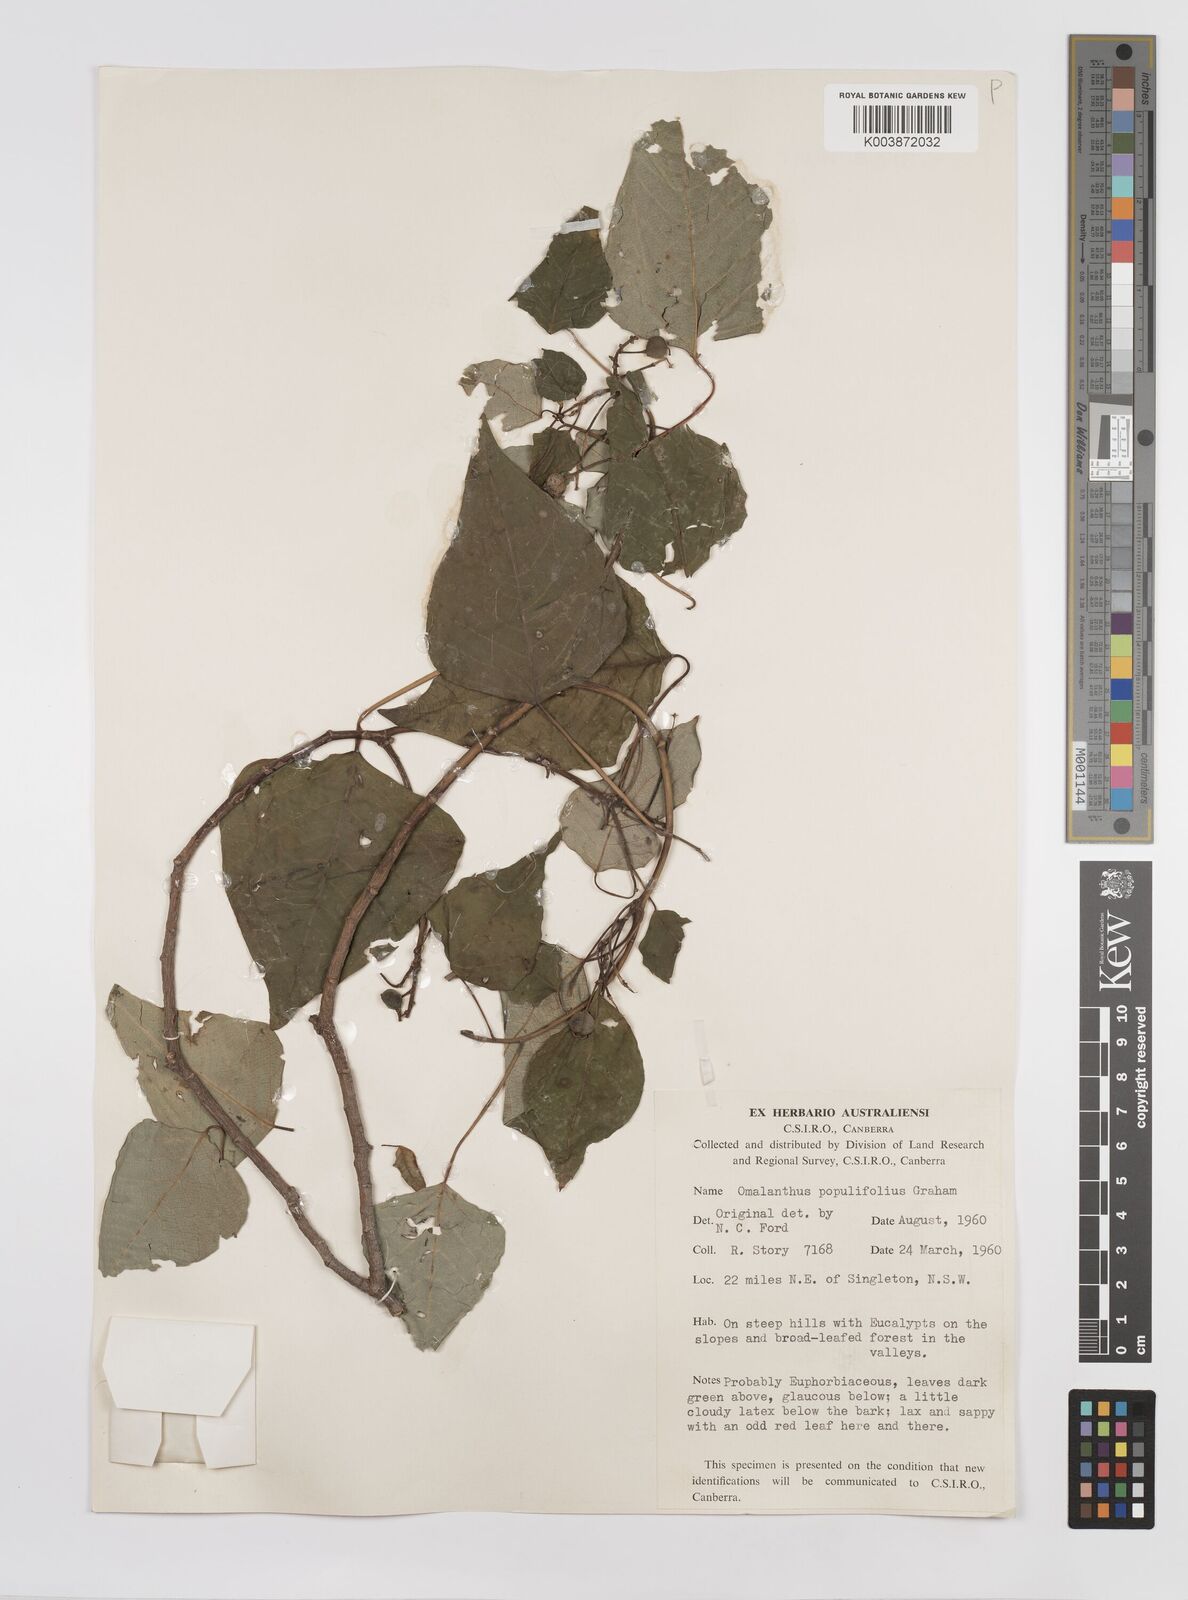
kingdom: Plantae
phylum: Tracheophyta
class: Magnoliopsida
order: Malpighiales
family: Euphorbiaceae
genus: Homalanthus
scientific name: Homalanthus populifolius
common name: Queensland poplar
